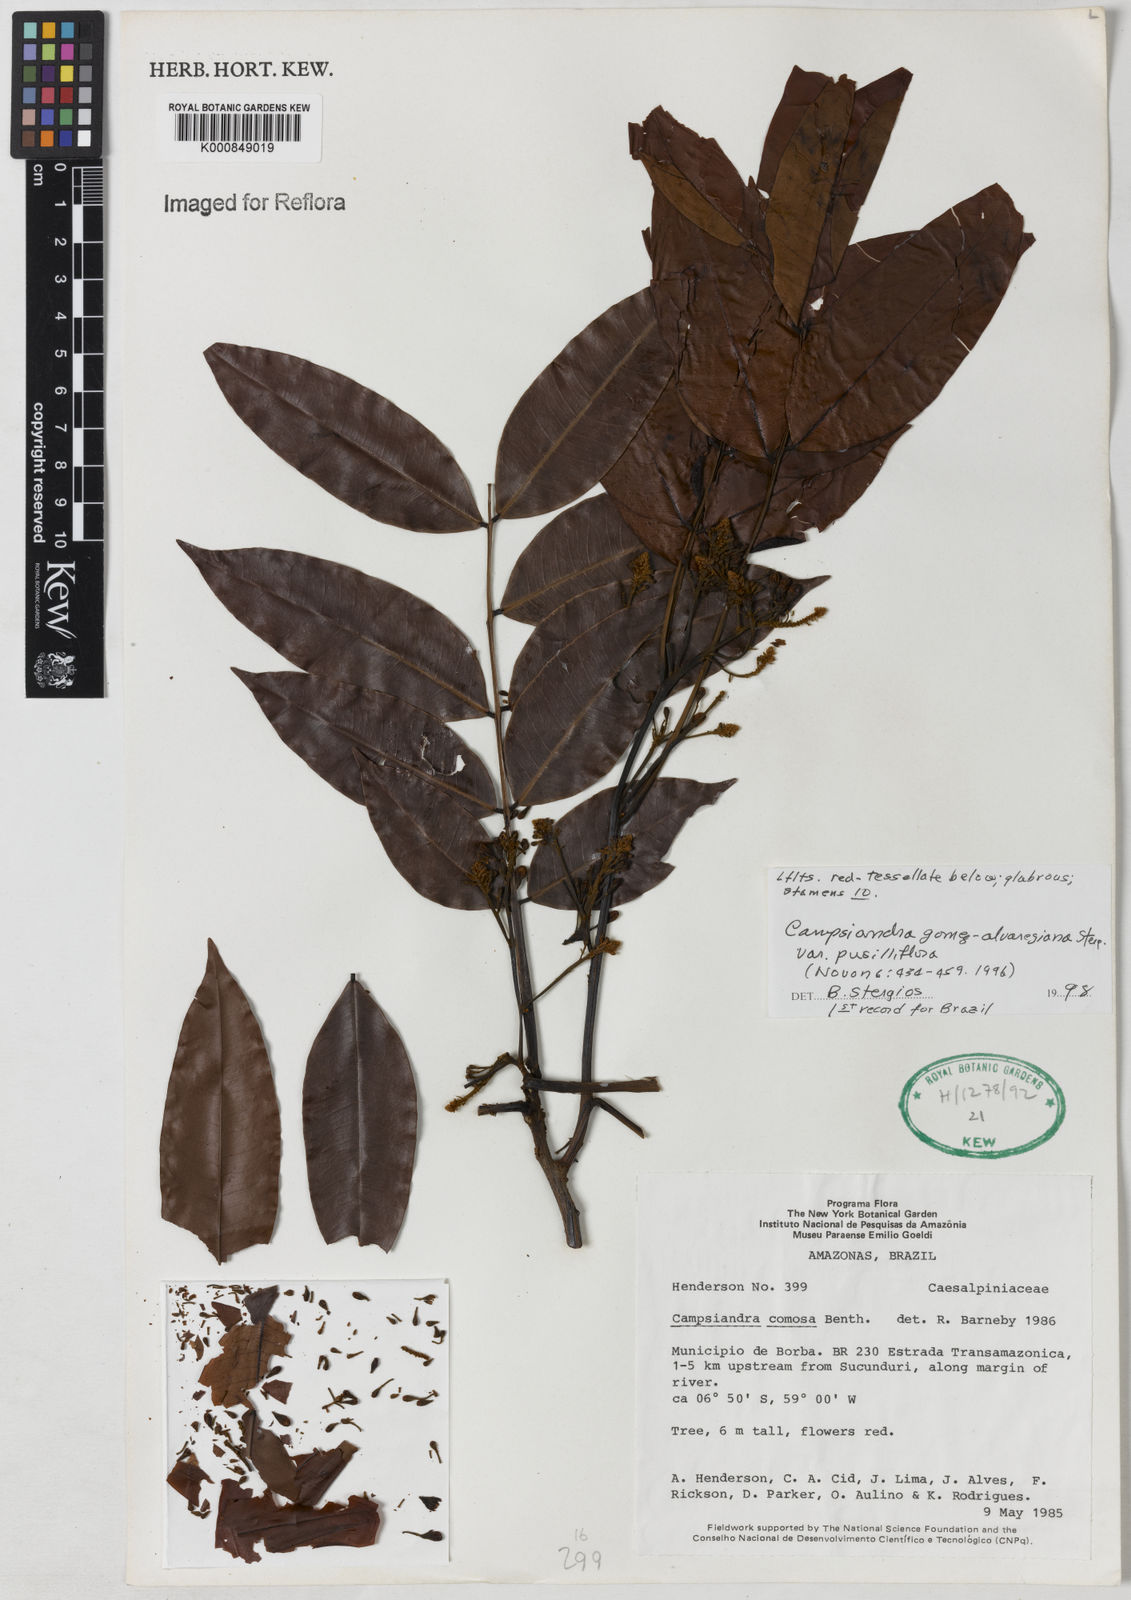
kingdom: Plantae
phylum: Tracheophyta
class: Magnoliopsida
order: Fabales
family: Fabaceae
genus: Campsiandra
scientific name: Campsiandra gomez-alvareziana
